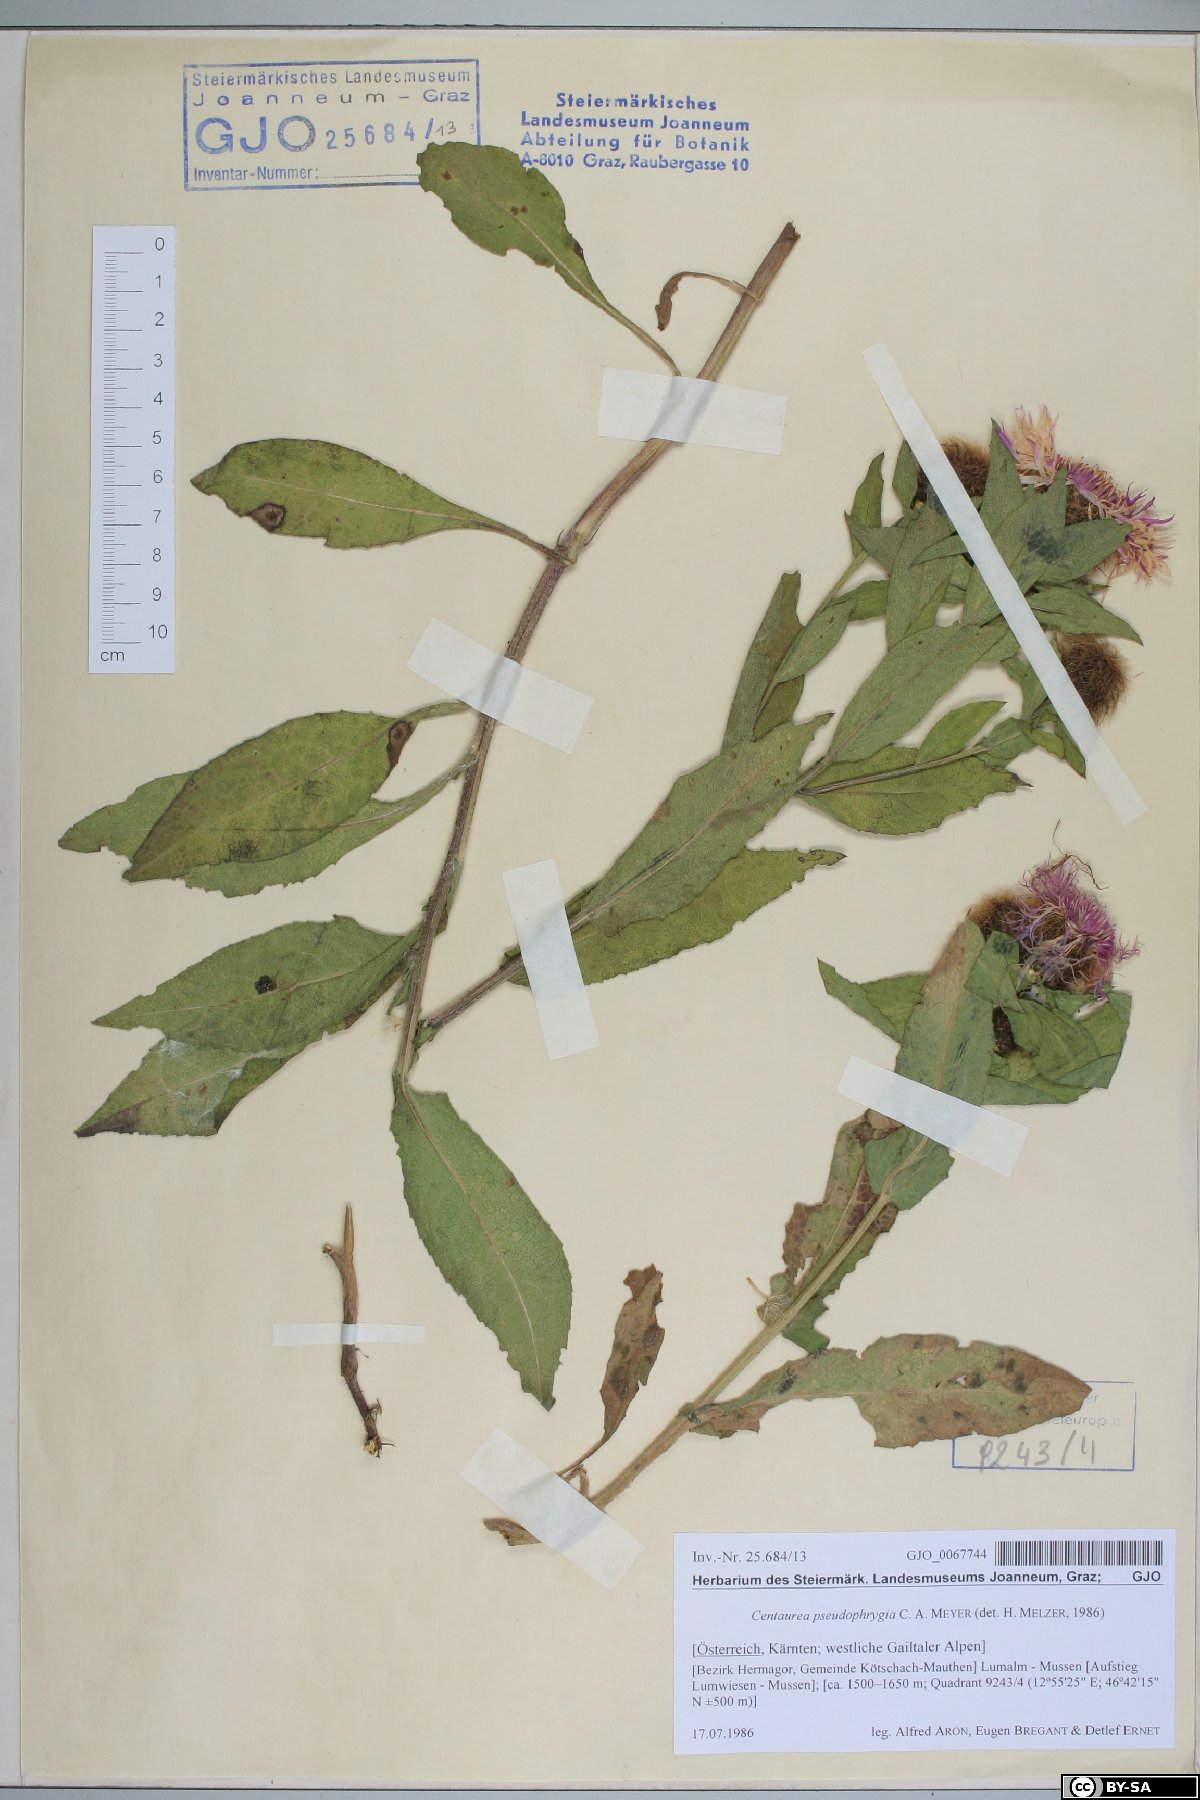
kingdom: Plantae
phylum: Tracheophyta
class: Magnoliopsida
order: Asterales
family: Asteraceae
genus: Centaurea
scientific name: Centaurea pseudophrygia
